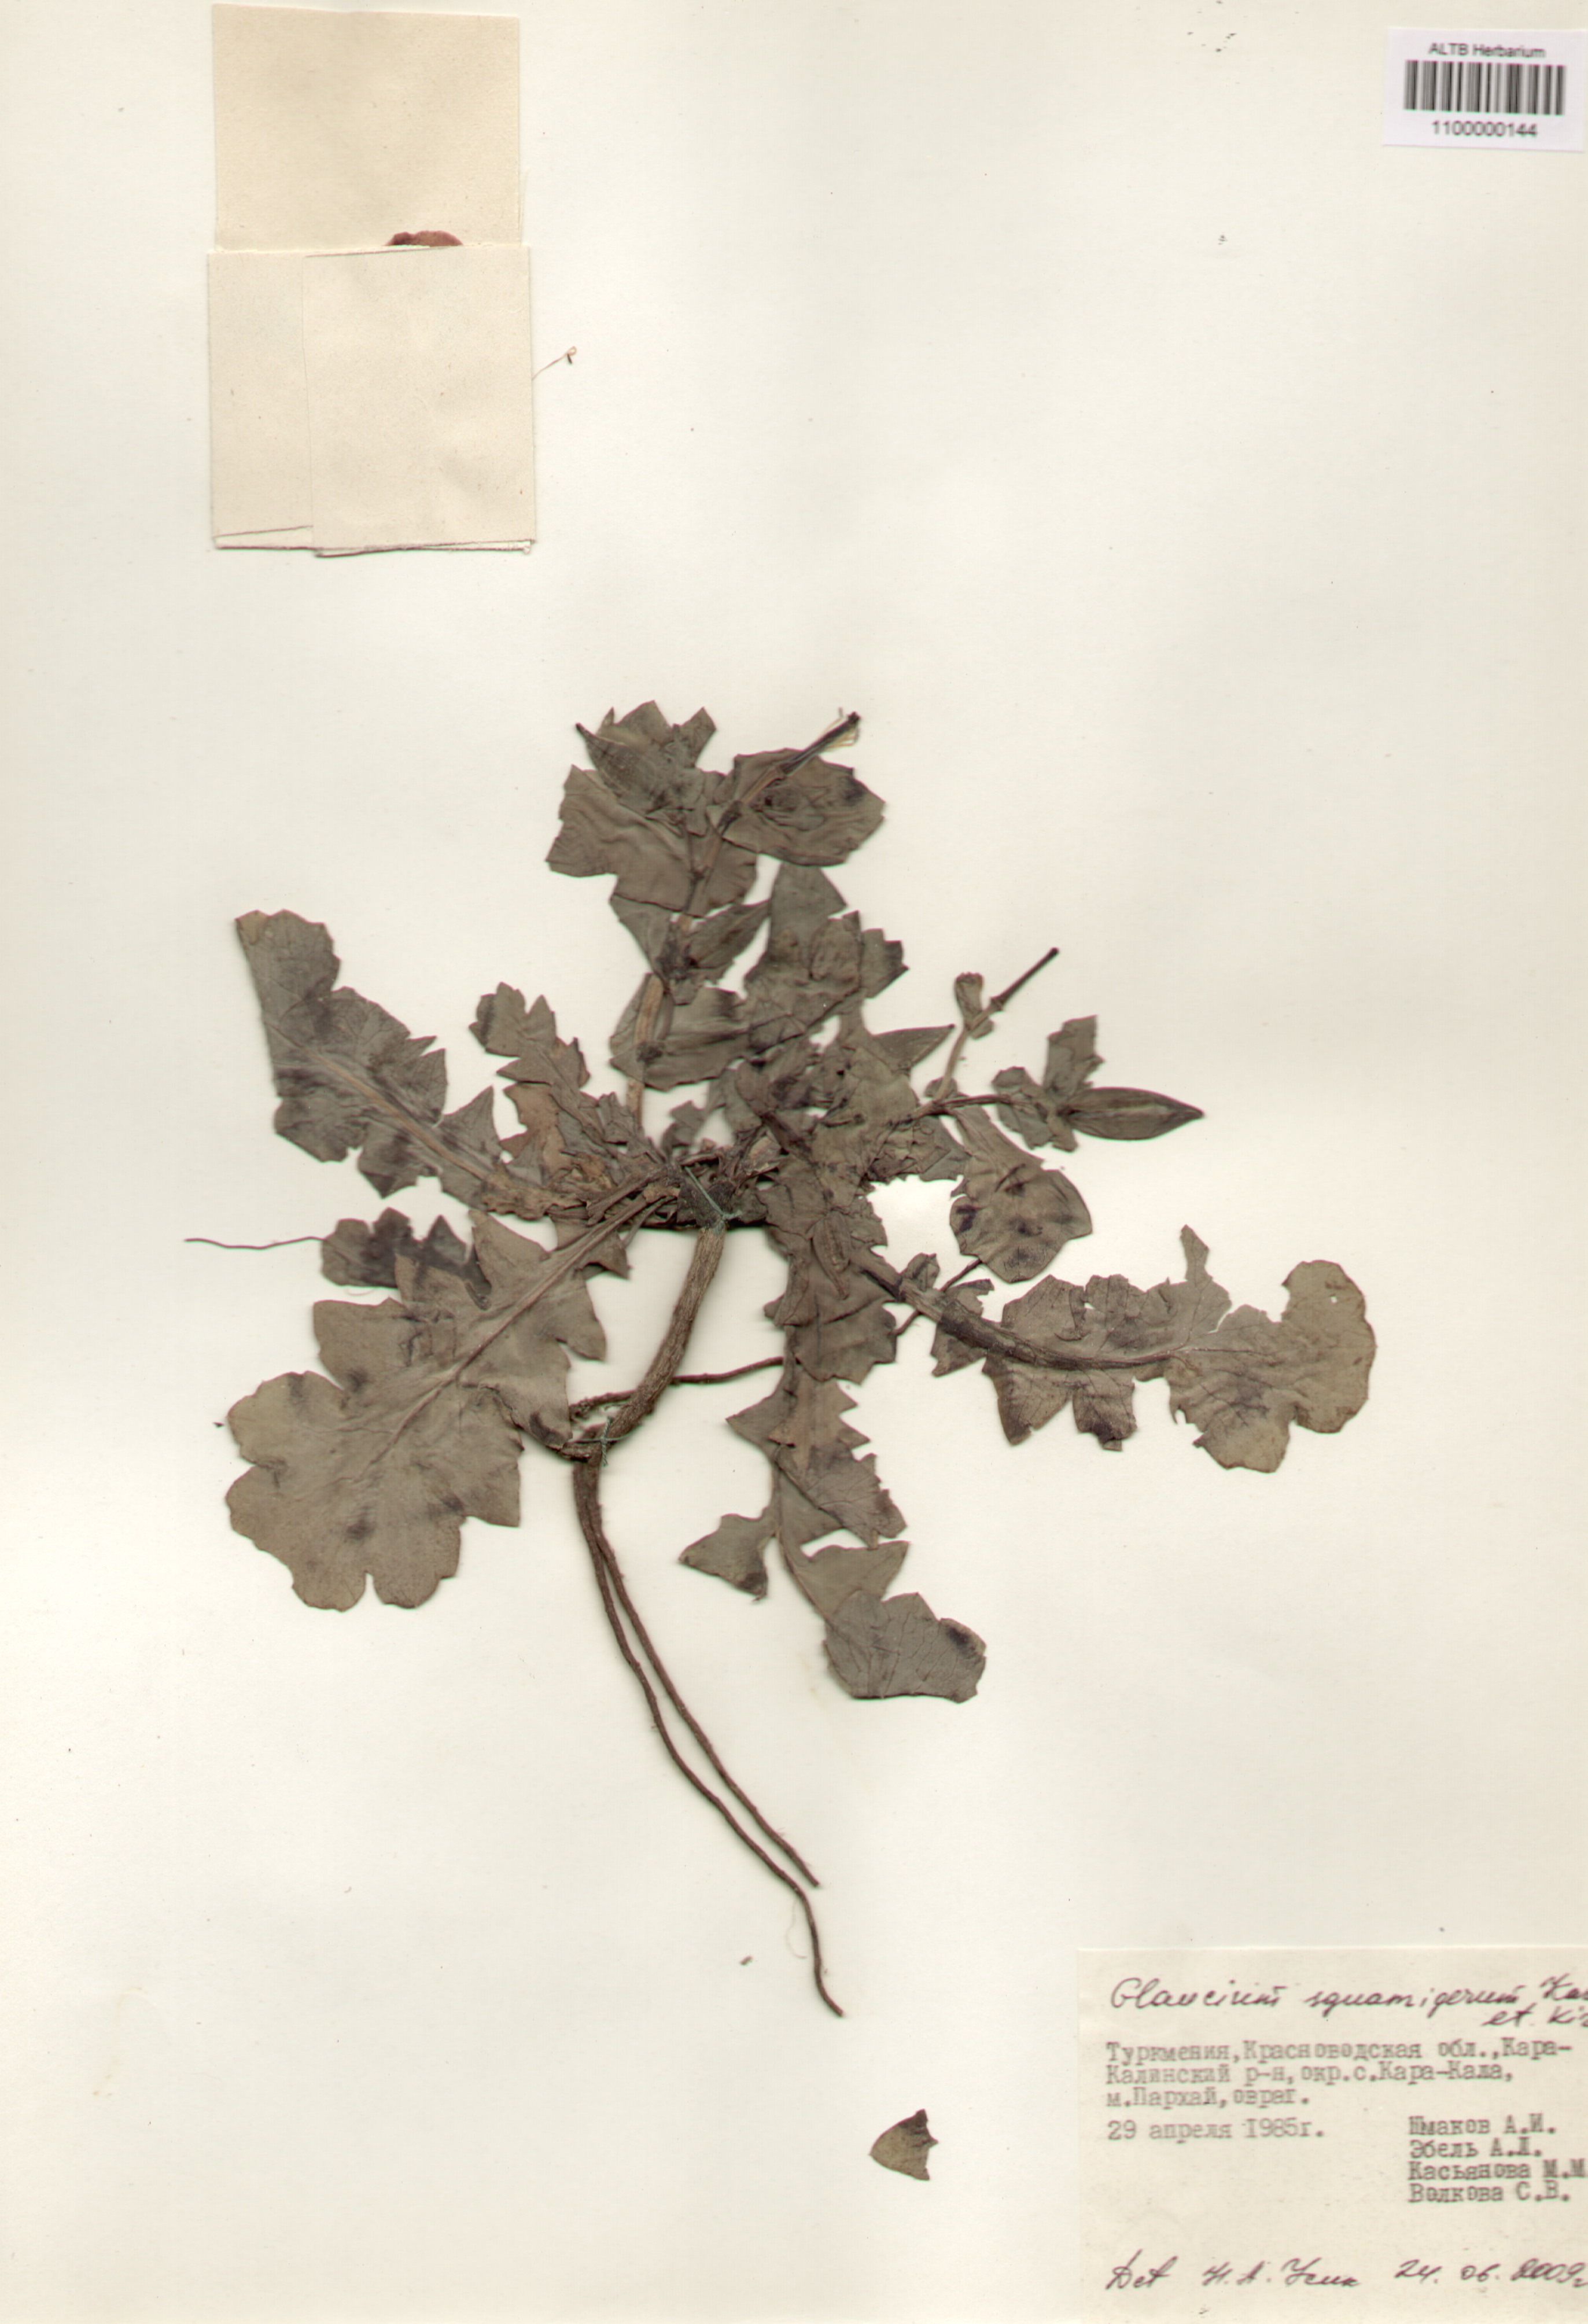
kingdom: Plantae
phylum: Tracheophyta
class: Magnoliopsida
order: Ranunculales
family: Papaveraceae
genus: Glaucium
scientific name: Glaucium squamigerum
